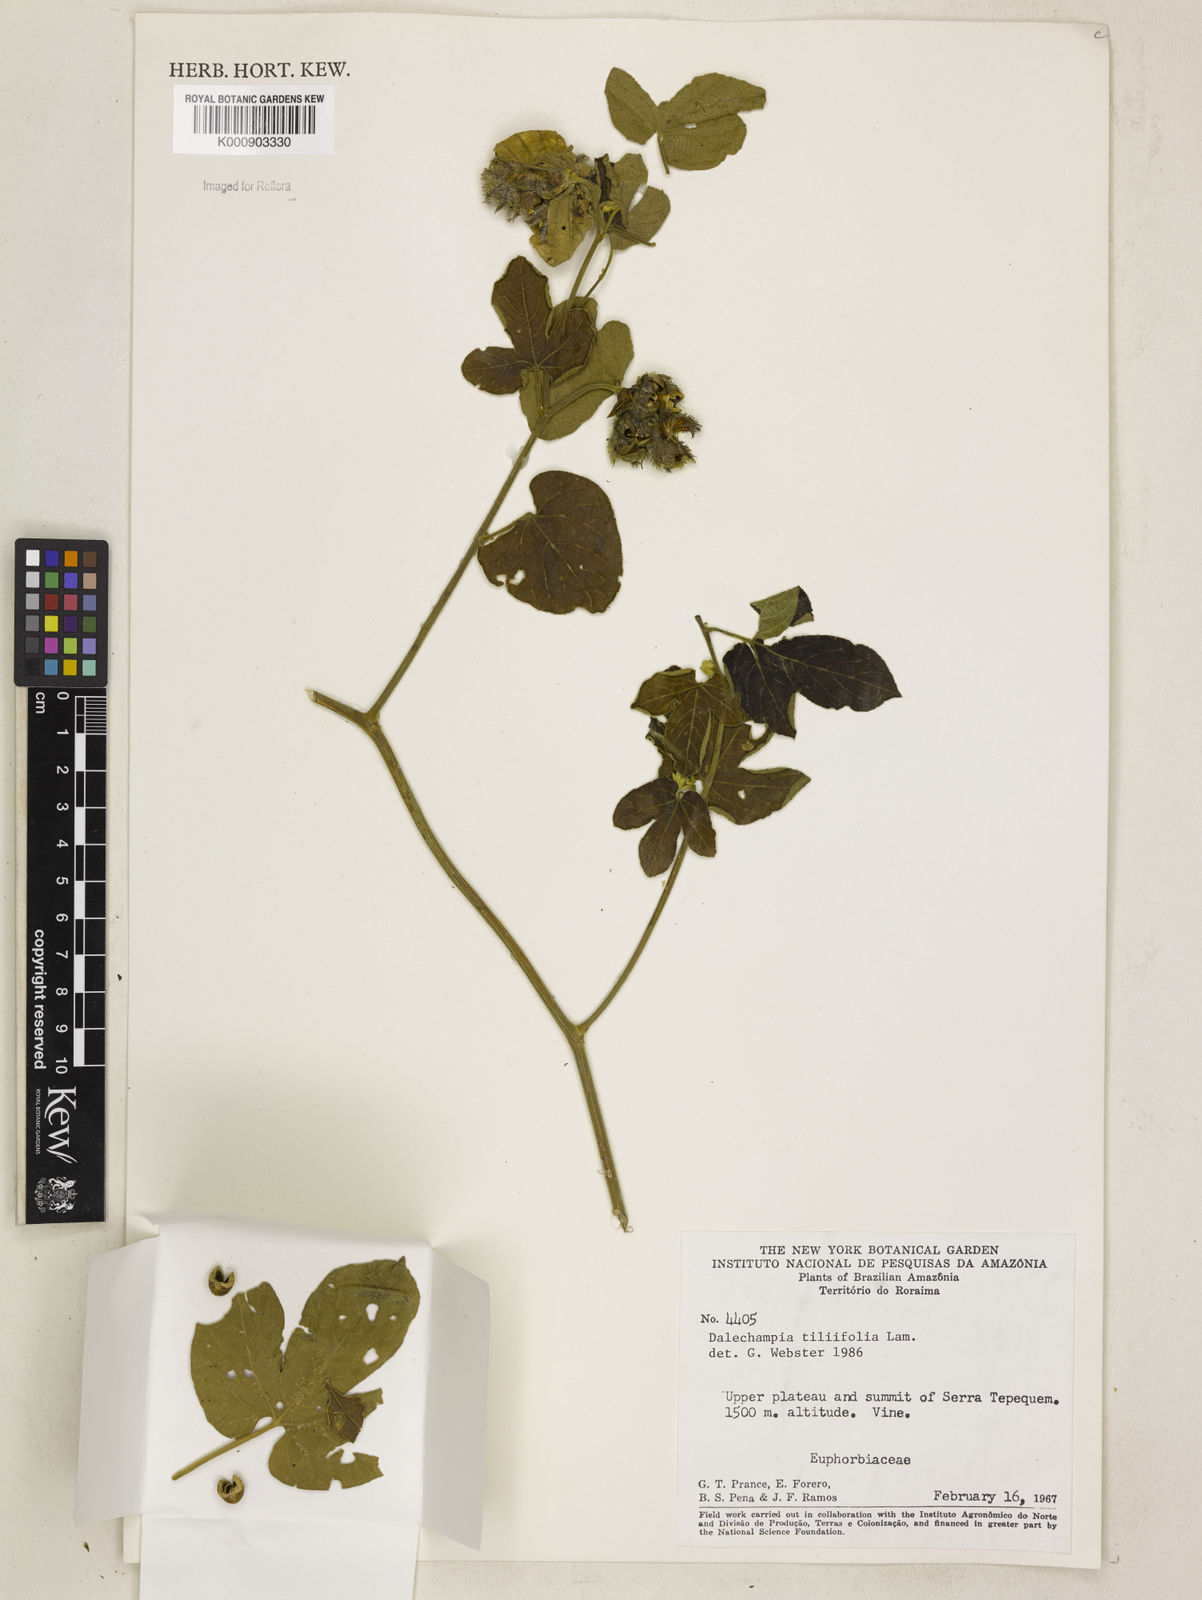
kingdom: Plantae
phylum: Tracheophyta
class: Magnoliopsida
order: Malpighiales
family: Euphorbiaceae
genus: Dalechampia
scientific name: Dalechampia tiliifolia
